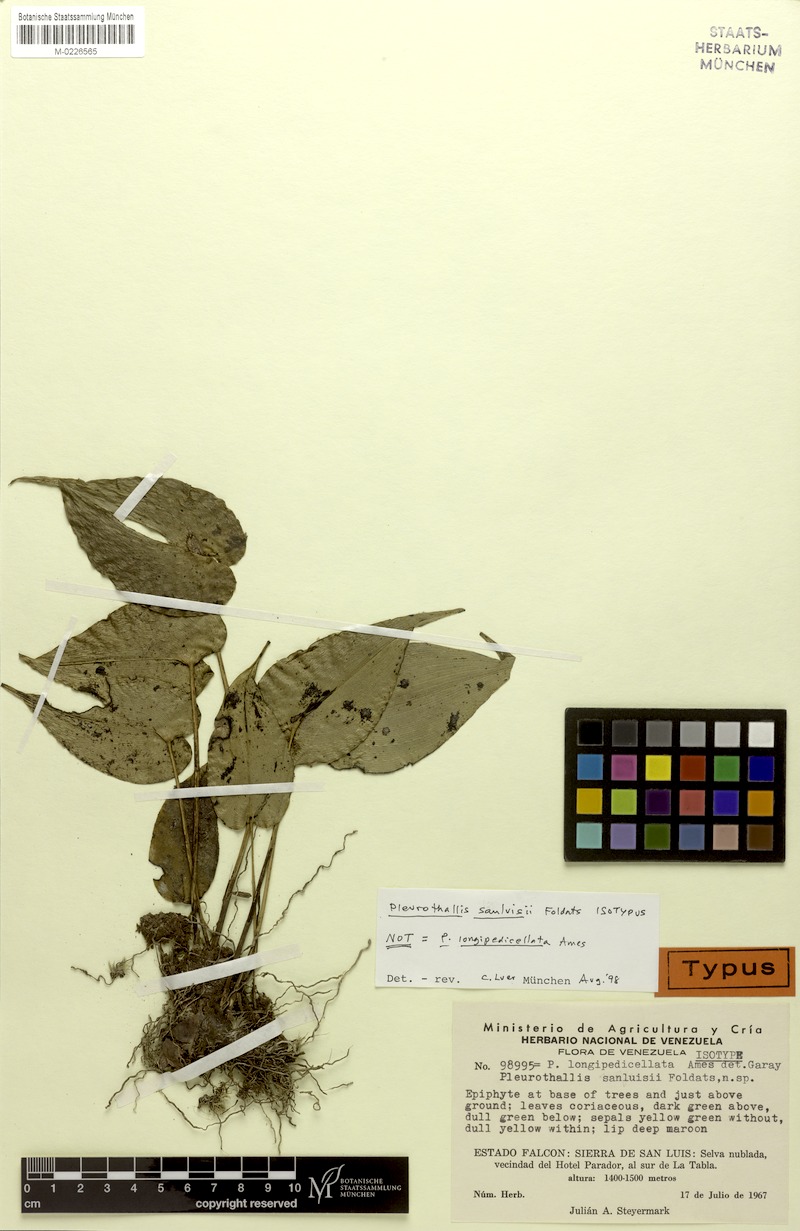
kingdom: Plantae
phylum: Tracheophyta
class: Liliopsida
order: Asparagales
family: Orchidaceae
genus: Pleurothallis
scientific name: Pleurothallis sanluisii
